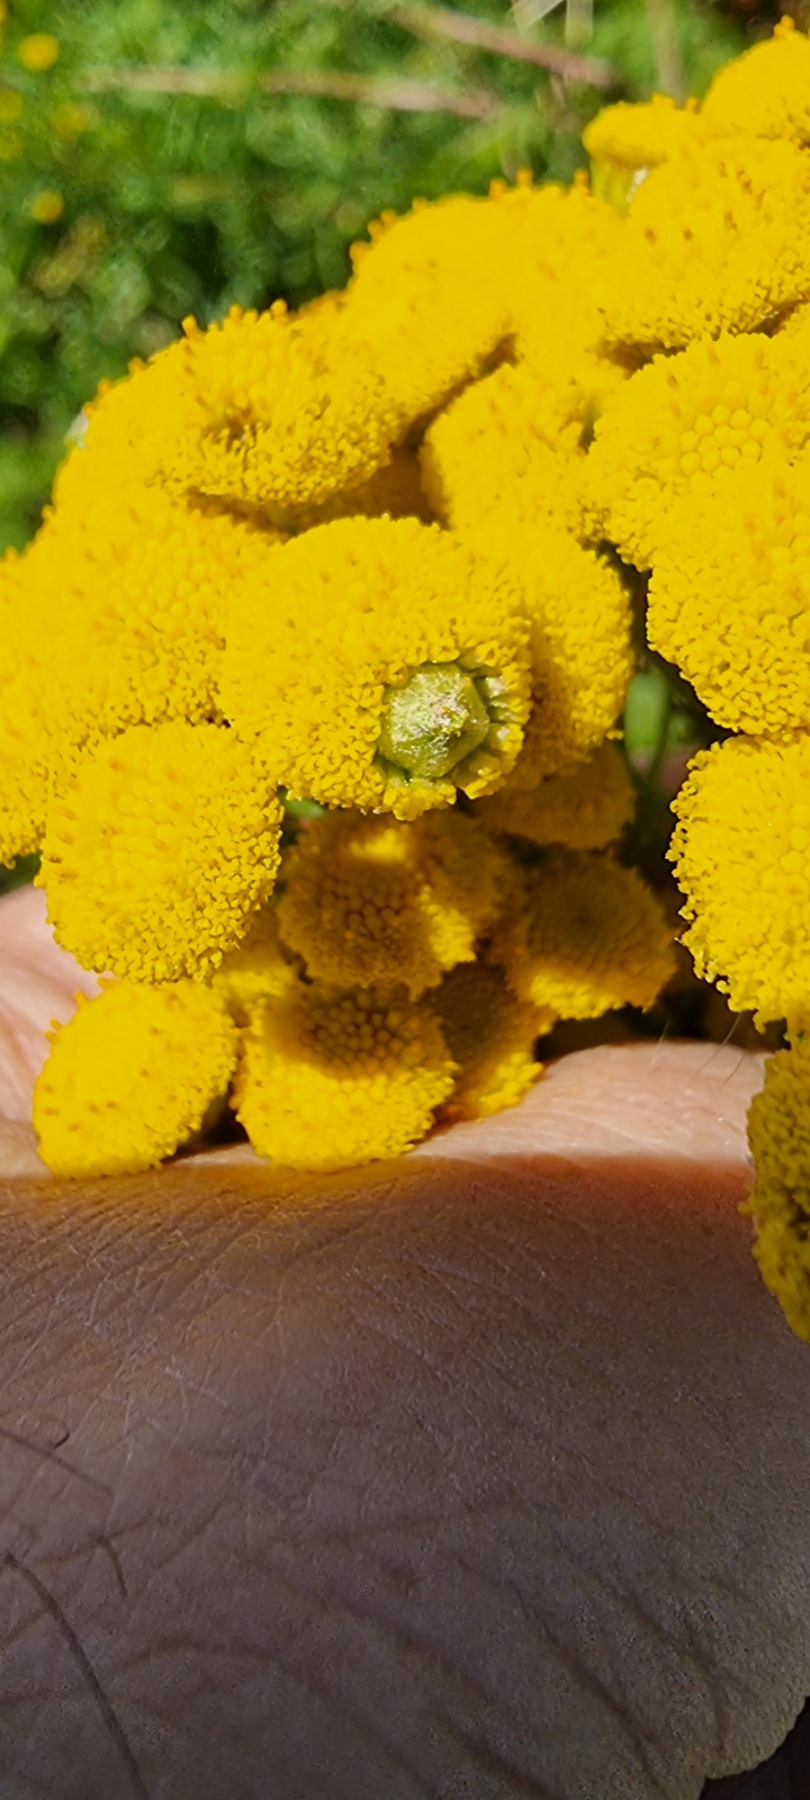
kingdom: Animalia
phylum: Arthropoda
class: Insecta
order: Diptera
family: Cecidomyiidae
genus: Rhopalomyia
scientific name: Rhopalomyia tanaceticolus
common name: Rejnfangalmyg
